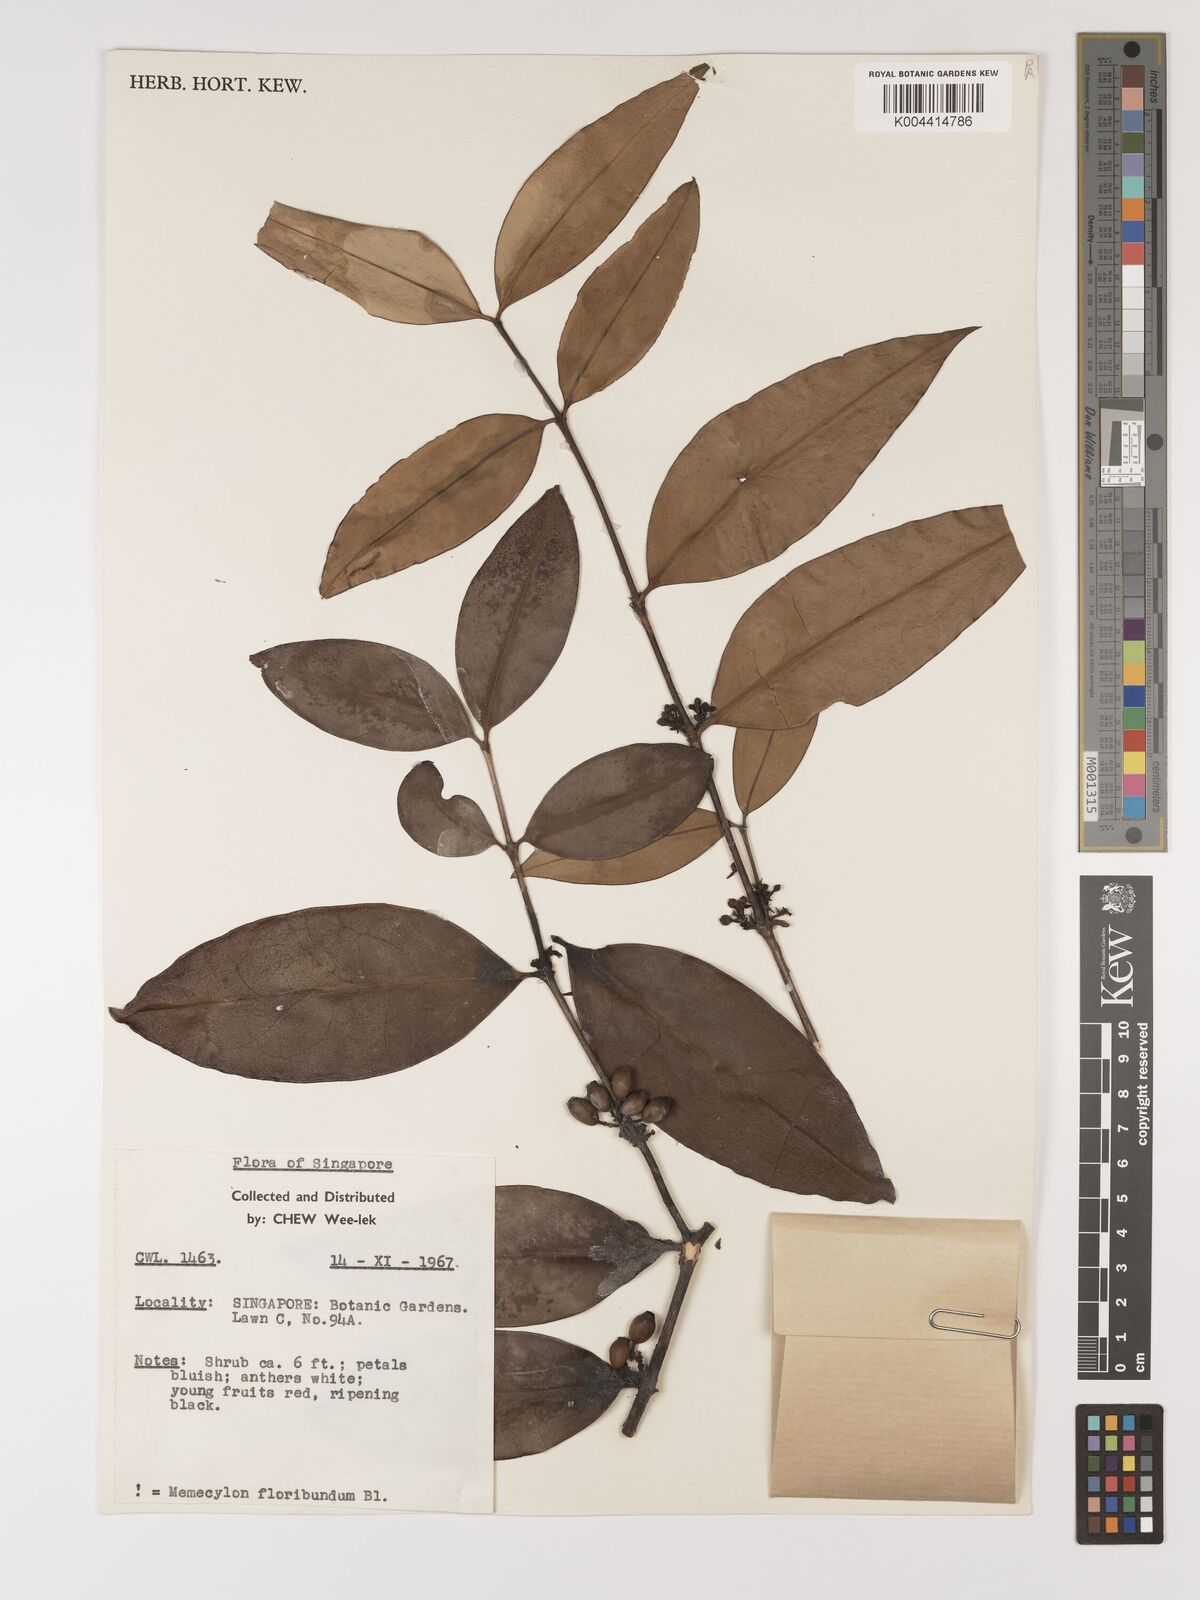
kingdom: Plantae
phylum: Tracheophyta
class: Magnoliopsida
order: Myrtales
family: Melastomataceae
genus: Memecylon
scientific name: Memecylon
